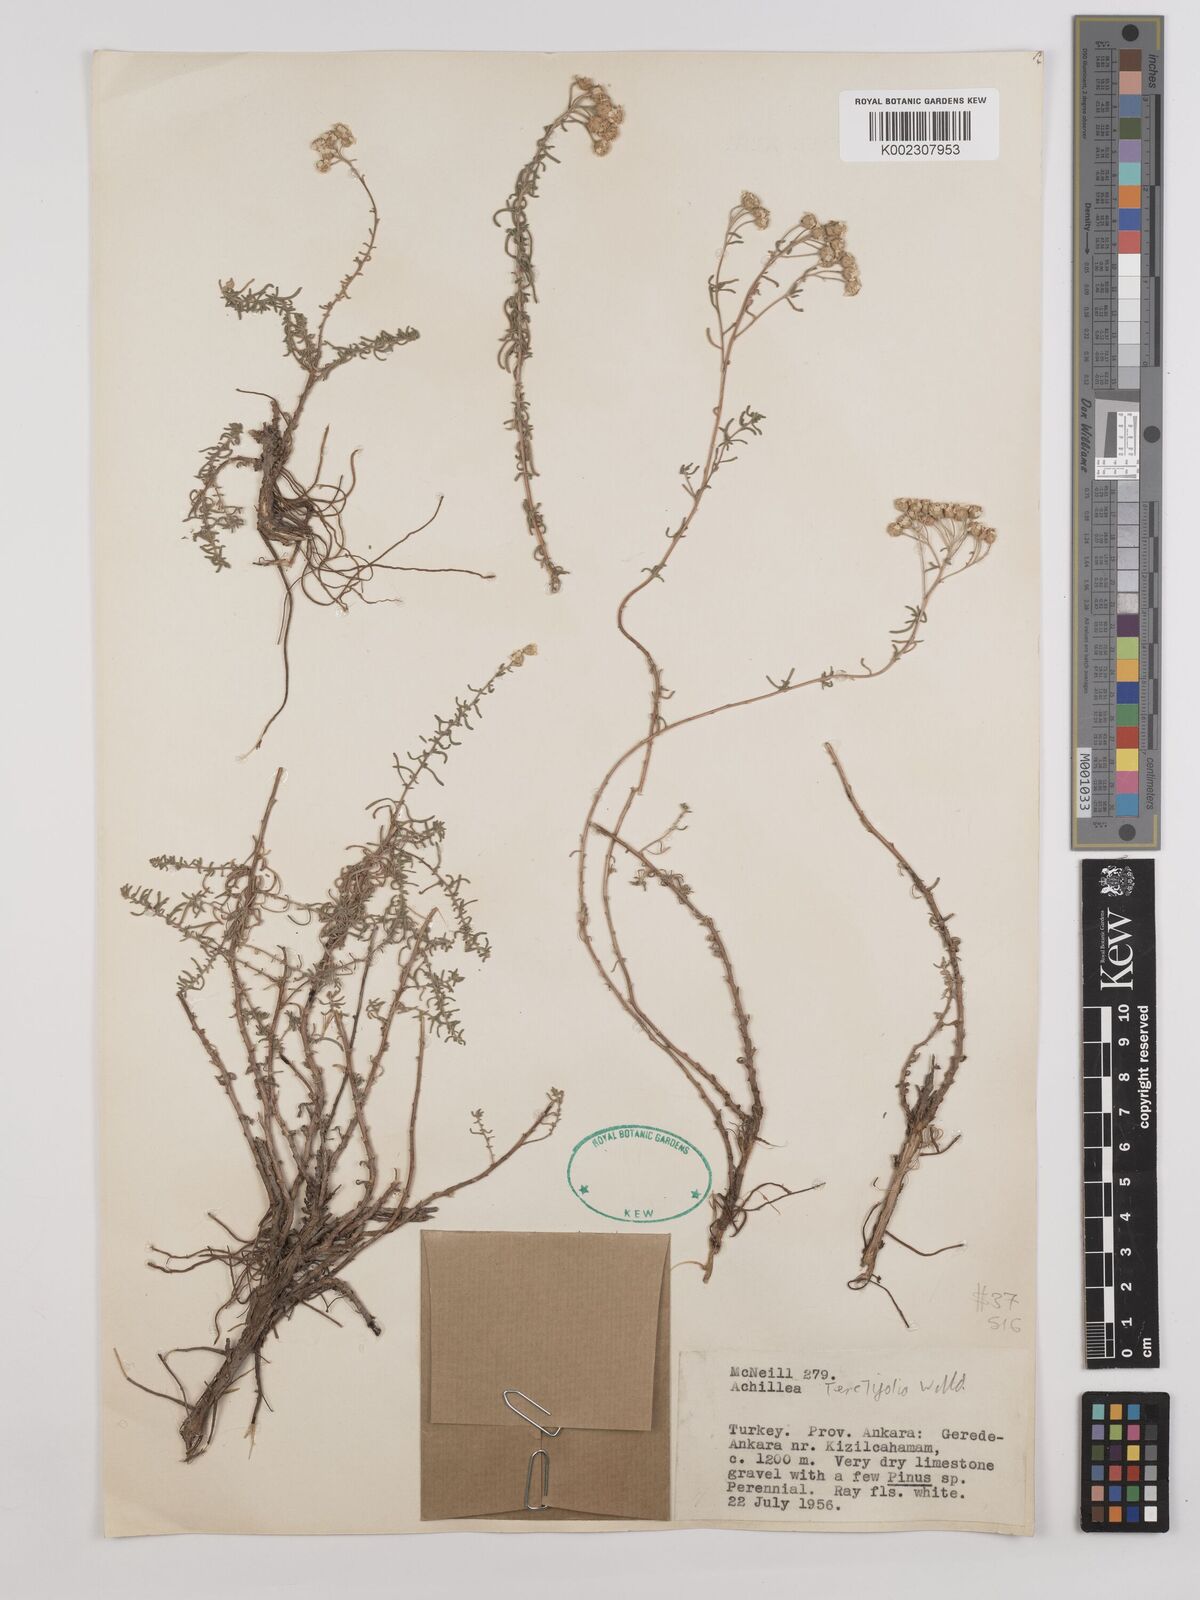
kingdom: Plantae
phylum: Tracheophyta
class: Magnoliopsida
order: Asterales
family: Asteraceae
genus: Achillea
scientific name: Achillea wilhelmsii
